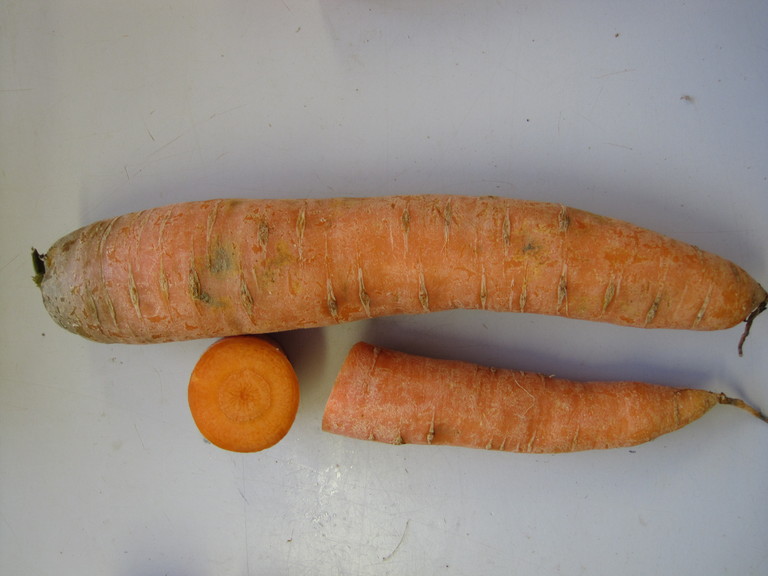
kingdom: Plantae
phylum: Tracheophyta
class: Magnoliopsida
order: Apiales
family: Apiaceae
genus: Daucus
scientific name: Daucus carota
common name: Wild carrot
